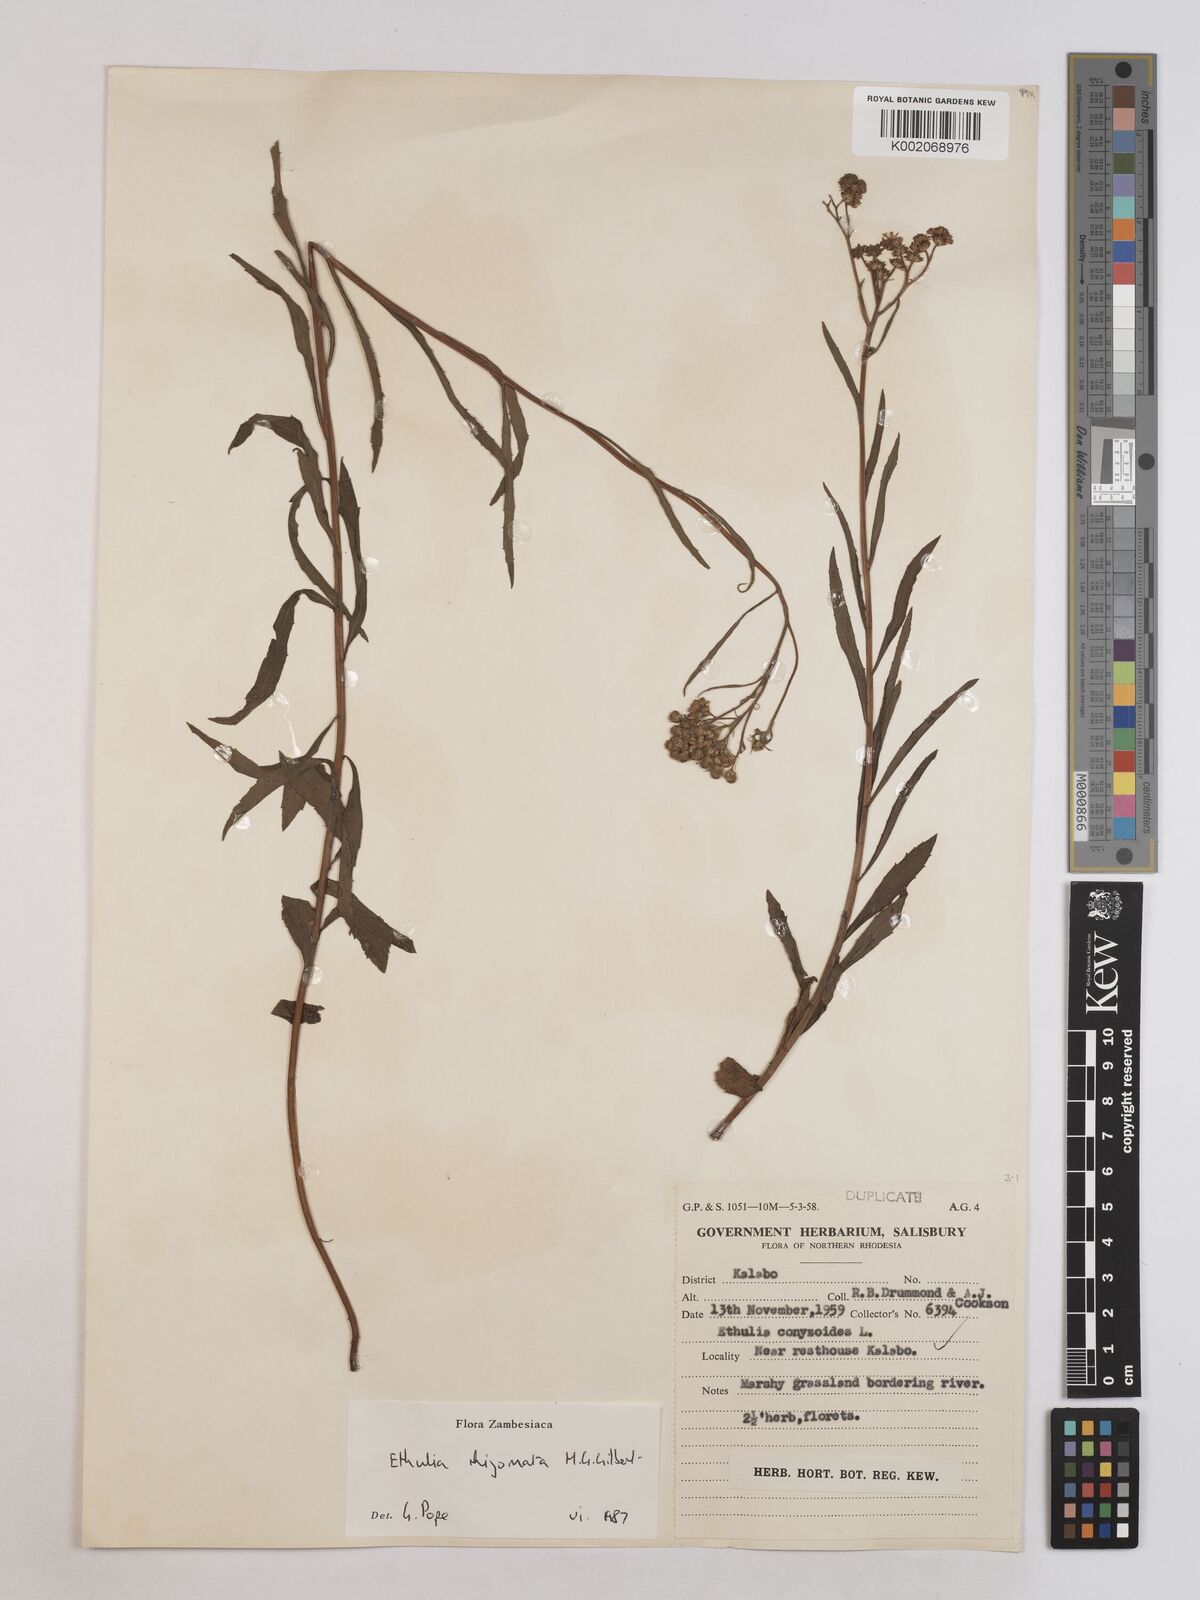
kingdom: Plantae
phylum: Tracheophyta
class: Magnoliopsida
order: Asterales
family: Asteraceae
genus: Ethulia
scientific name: Ethulia rhizomata
